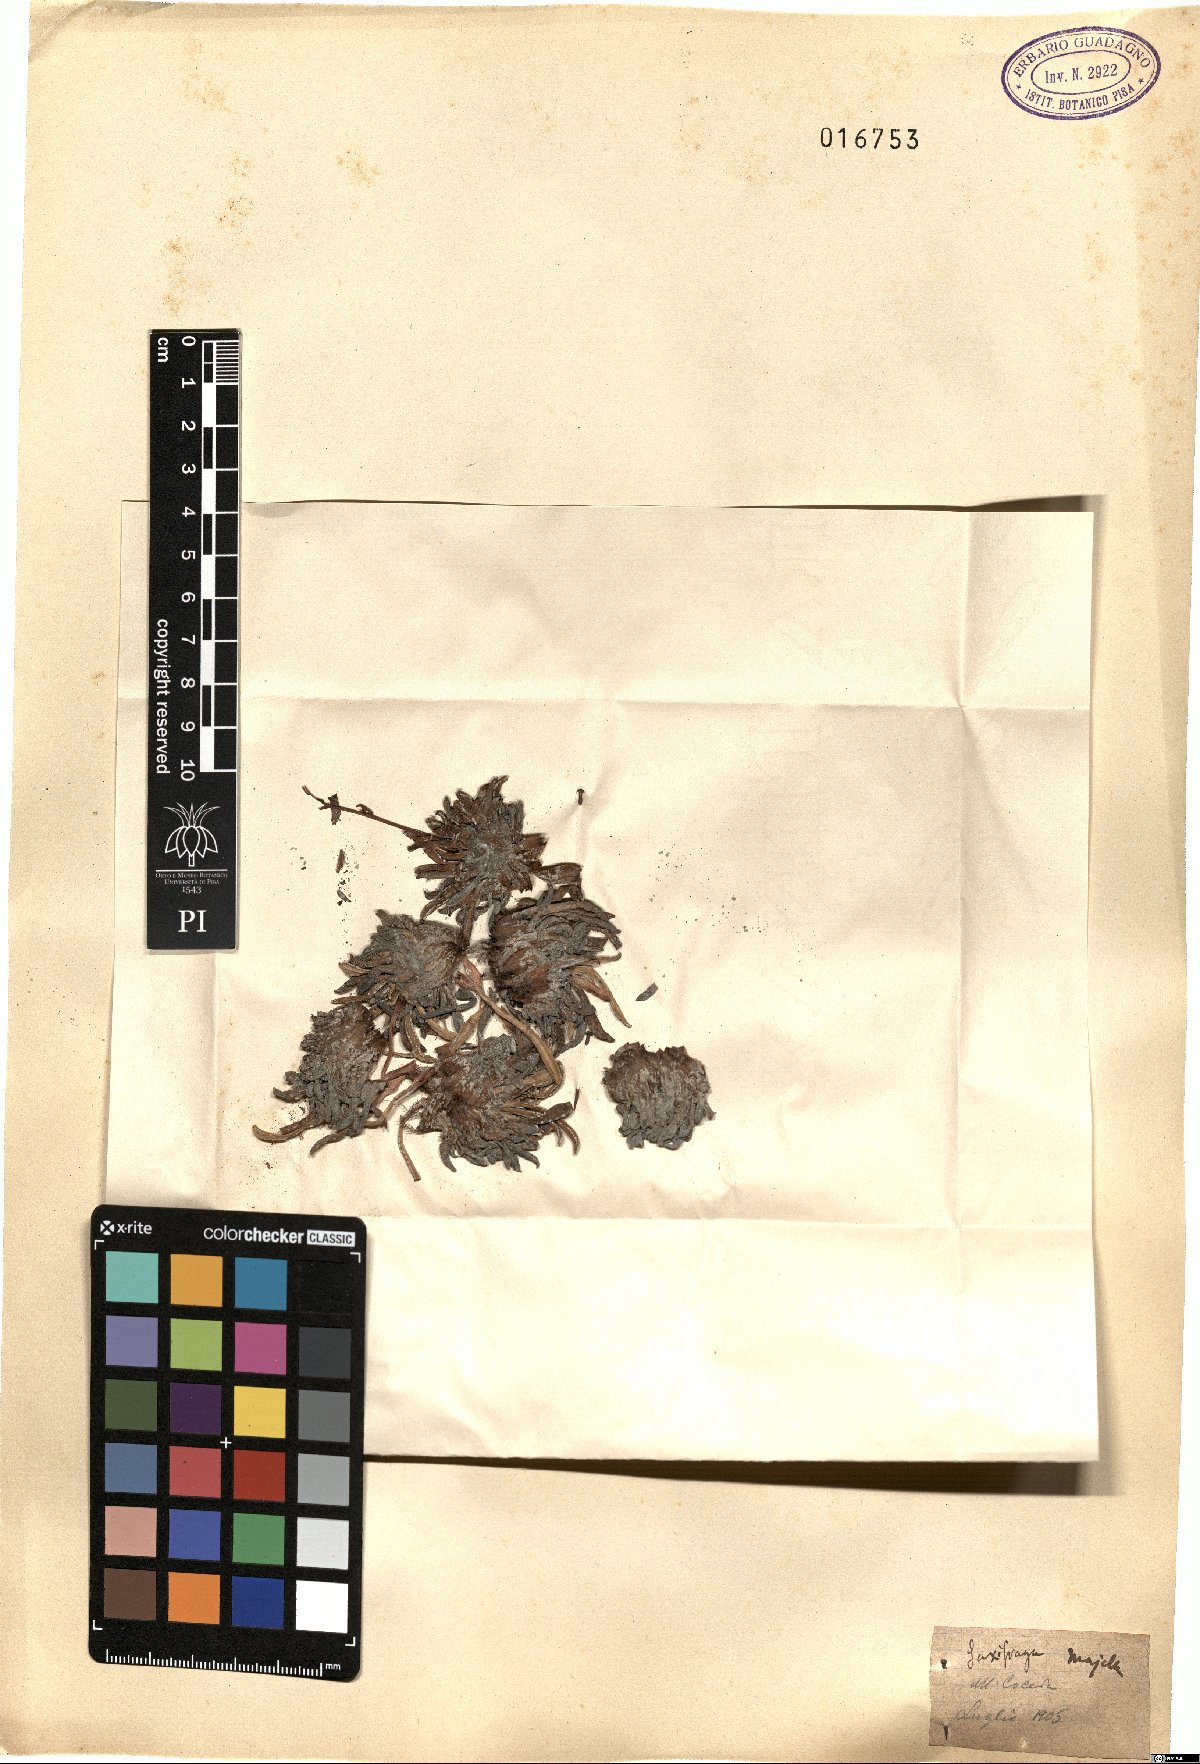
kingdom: Plantae
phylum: Tracheophyta
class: Magnoliopsida
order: Saxifragales
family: Saxifragaceae
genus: Saxifraga
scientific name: Saxifraga
